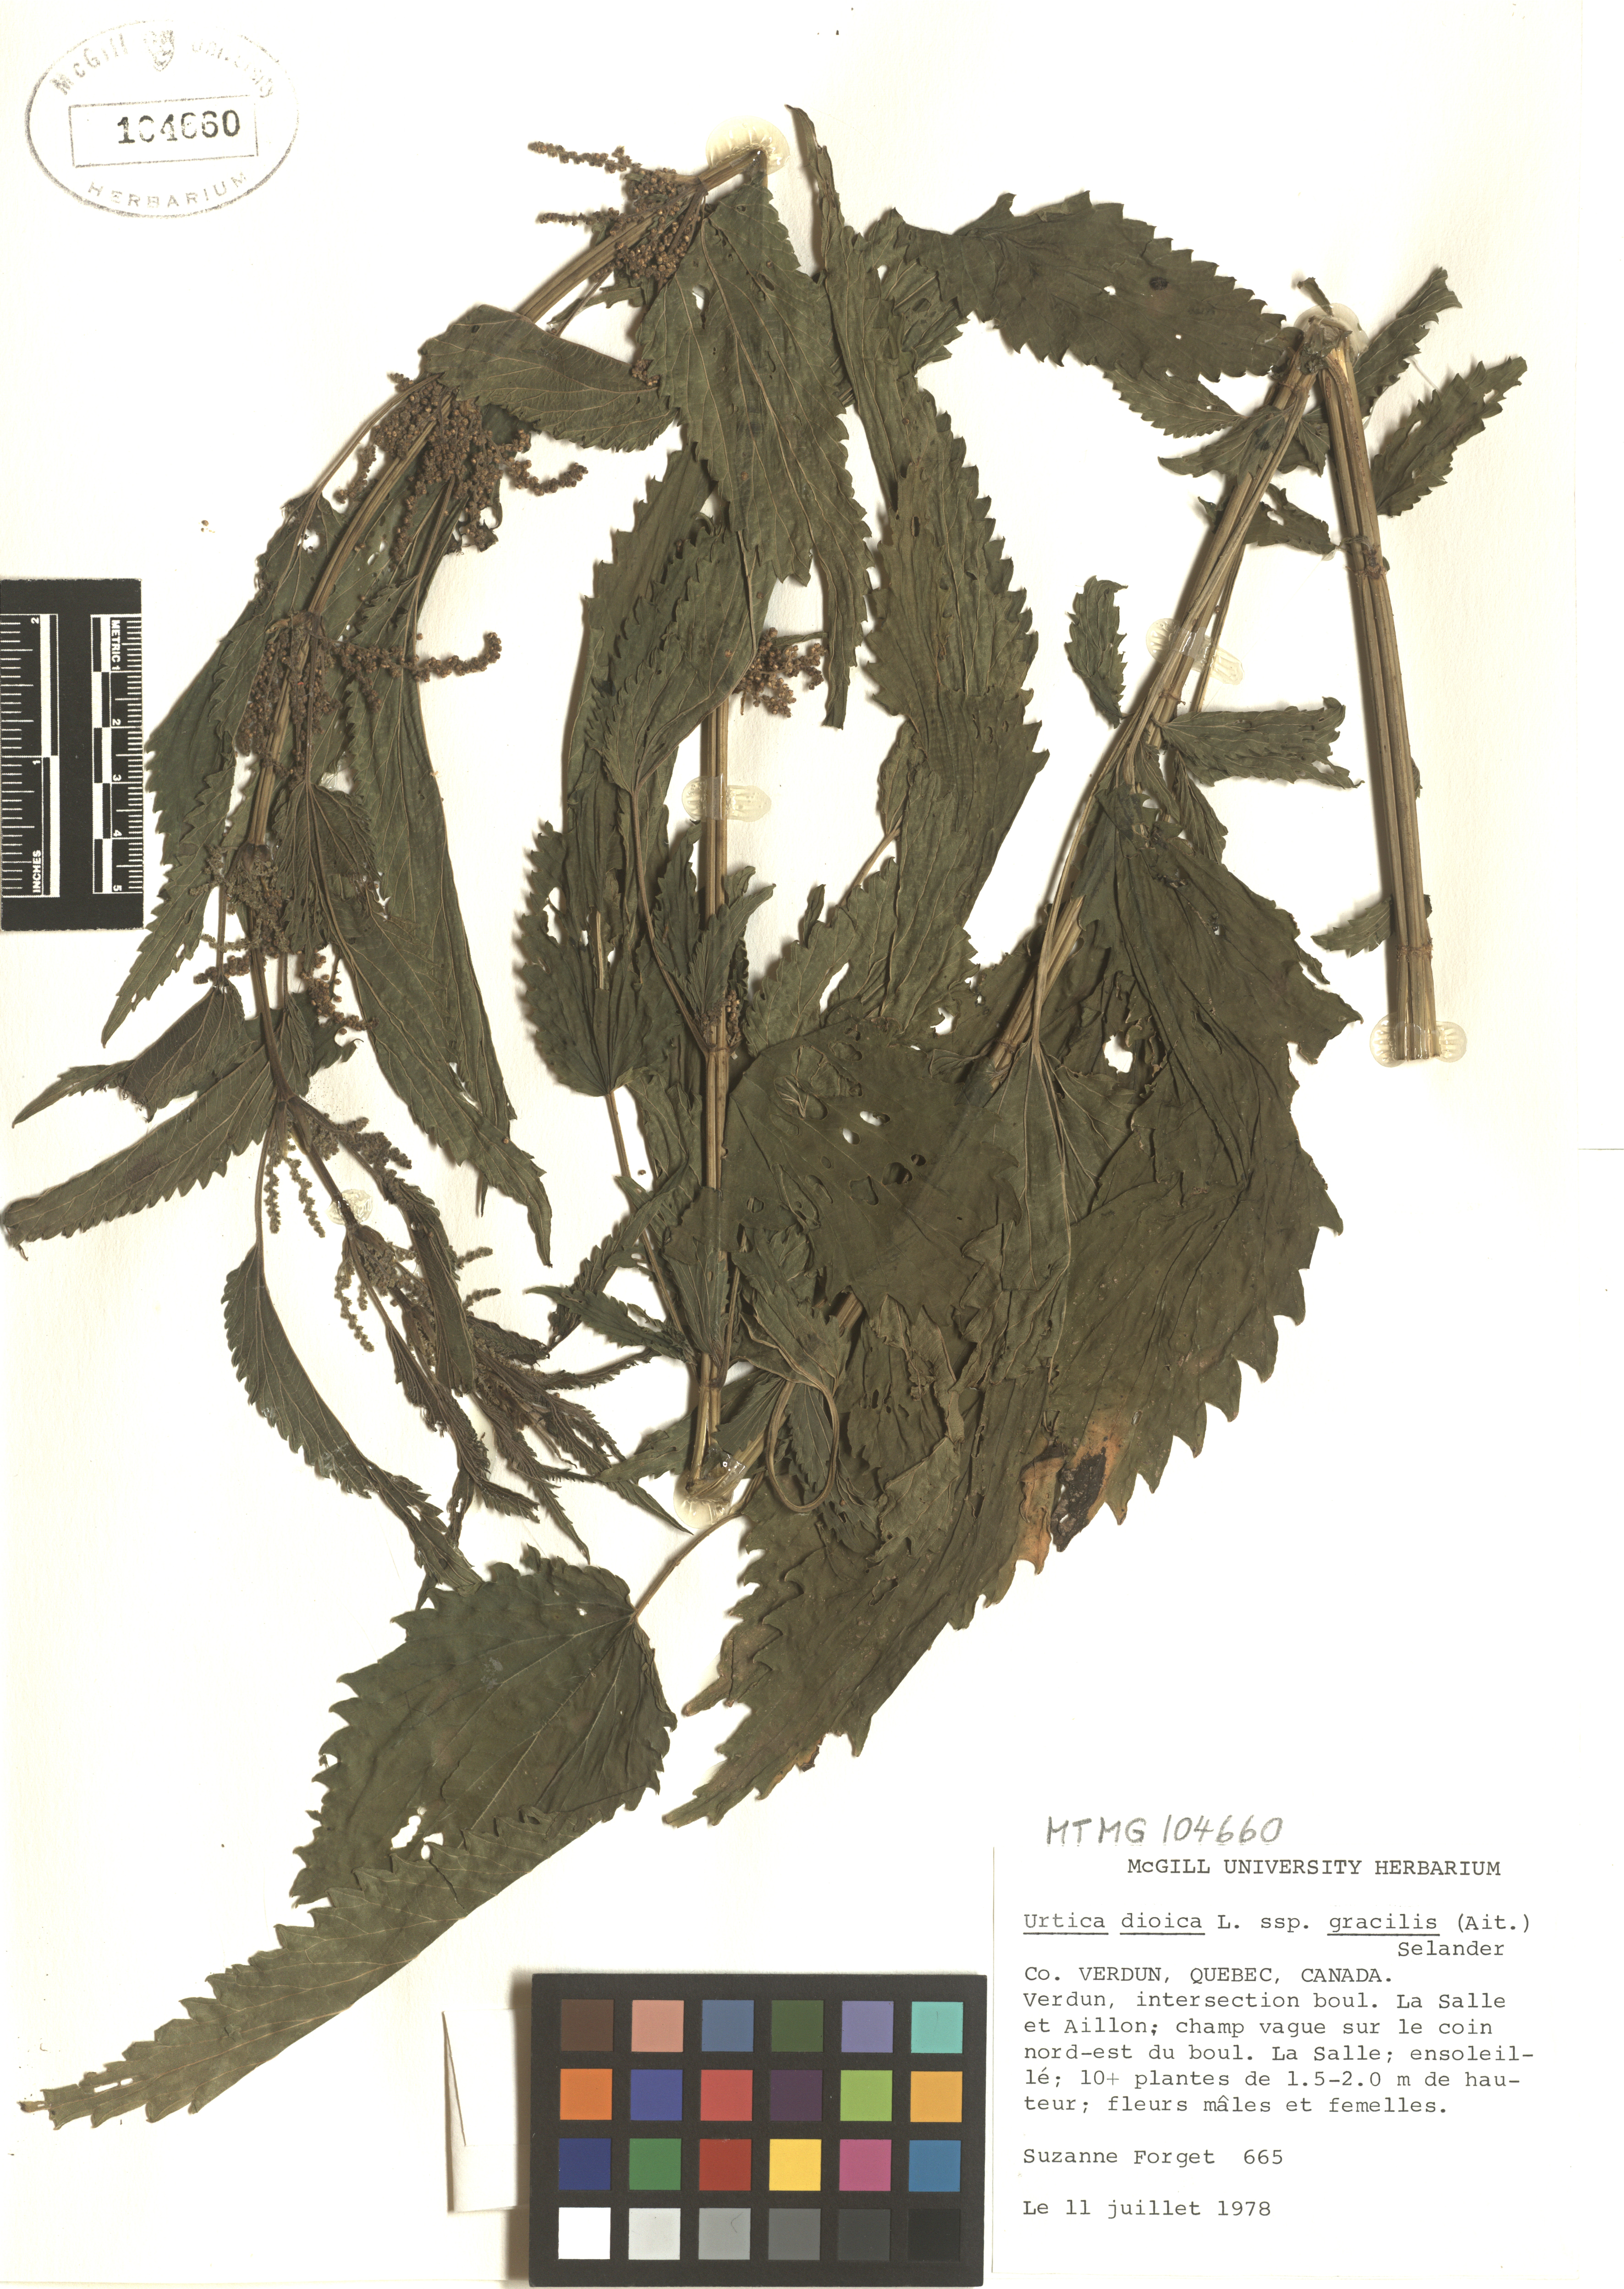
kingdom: Plantae
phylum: Tracheophyta
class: Magnoliopsida
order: Rosales
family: Urticaceae
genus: Urtica
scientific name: Urtica gracilis
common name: Slender stinging nettle
